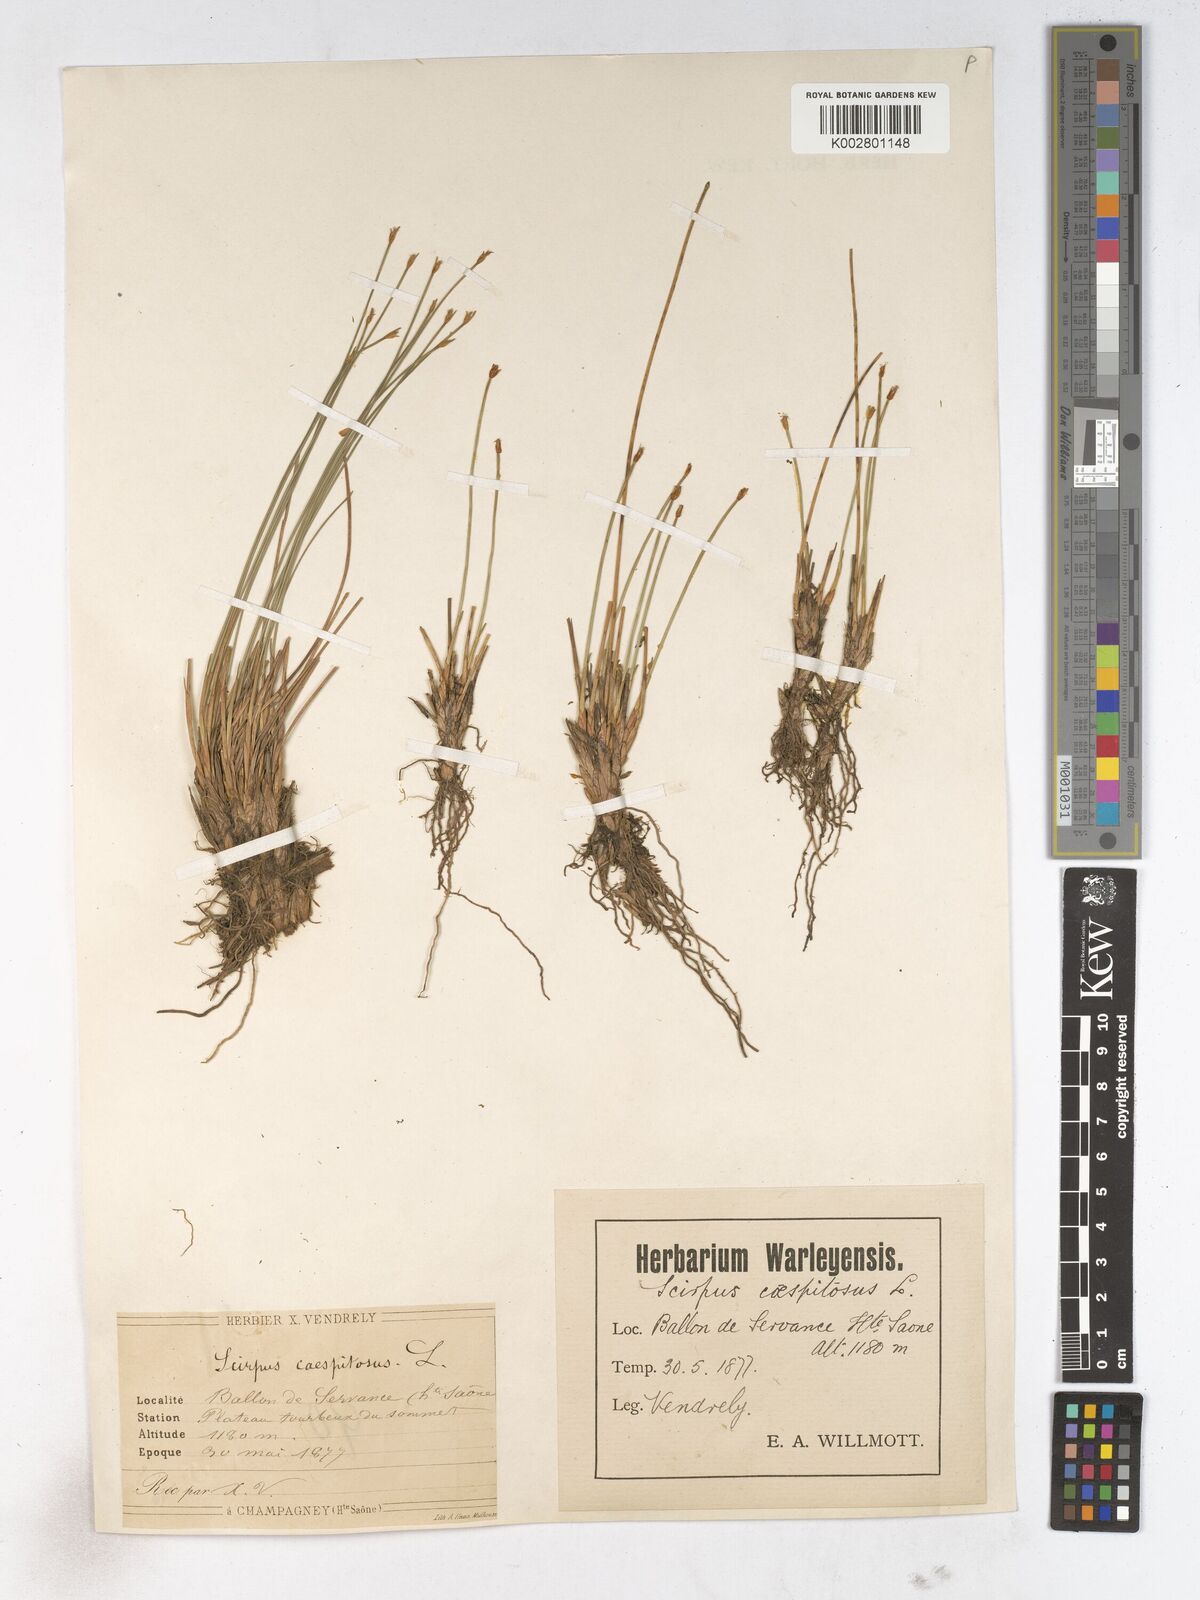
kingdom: Plantae
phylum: Tracheophyta
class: Liliopsida
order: Poales
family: Cyperaceae
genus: Trichophorum
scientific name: Trichophorum cespitosum
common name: Cespitose bulrush
